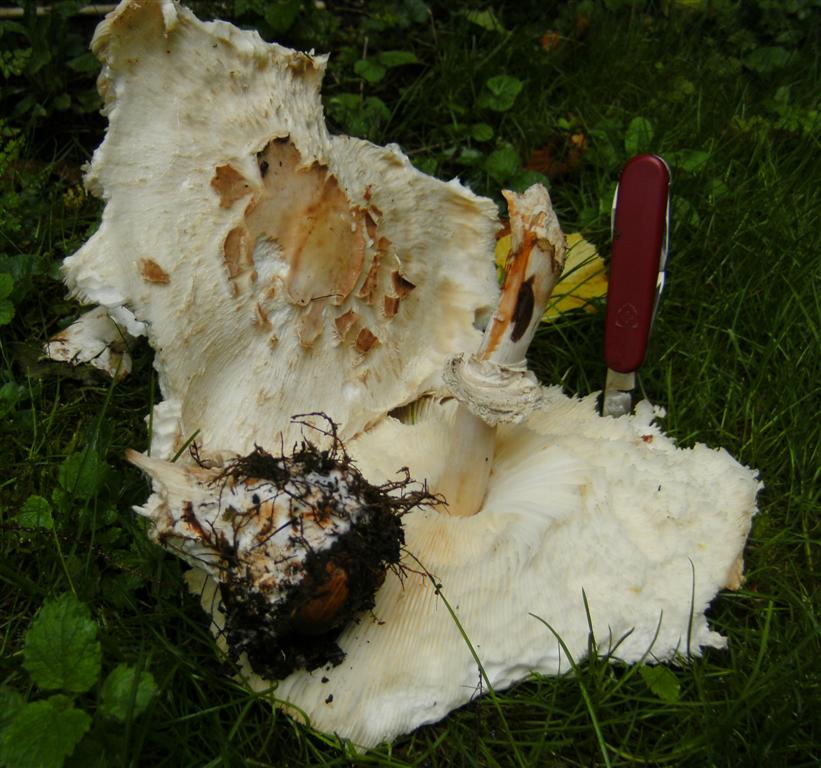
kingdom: Fungi
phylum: Basidiomycota
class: Agaricomycetes
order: Agaricales
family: Agaricaceae
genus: Chlorophyllum
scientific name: Chlorophyllum rhacodes
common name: ægte rabarberhat
